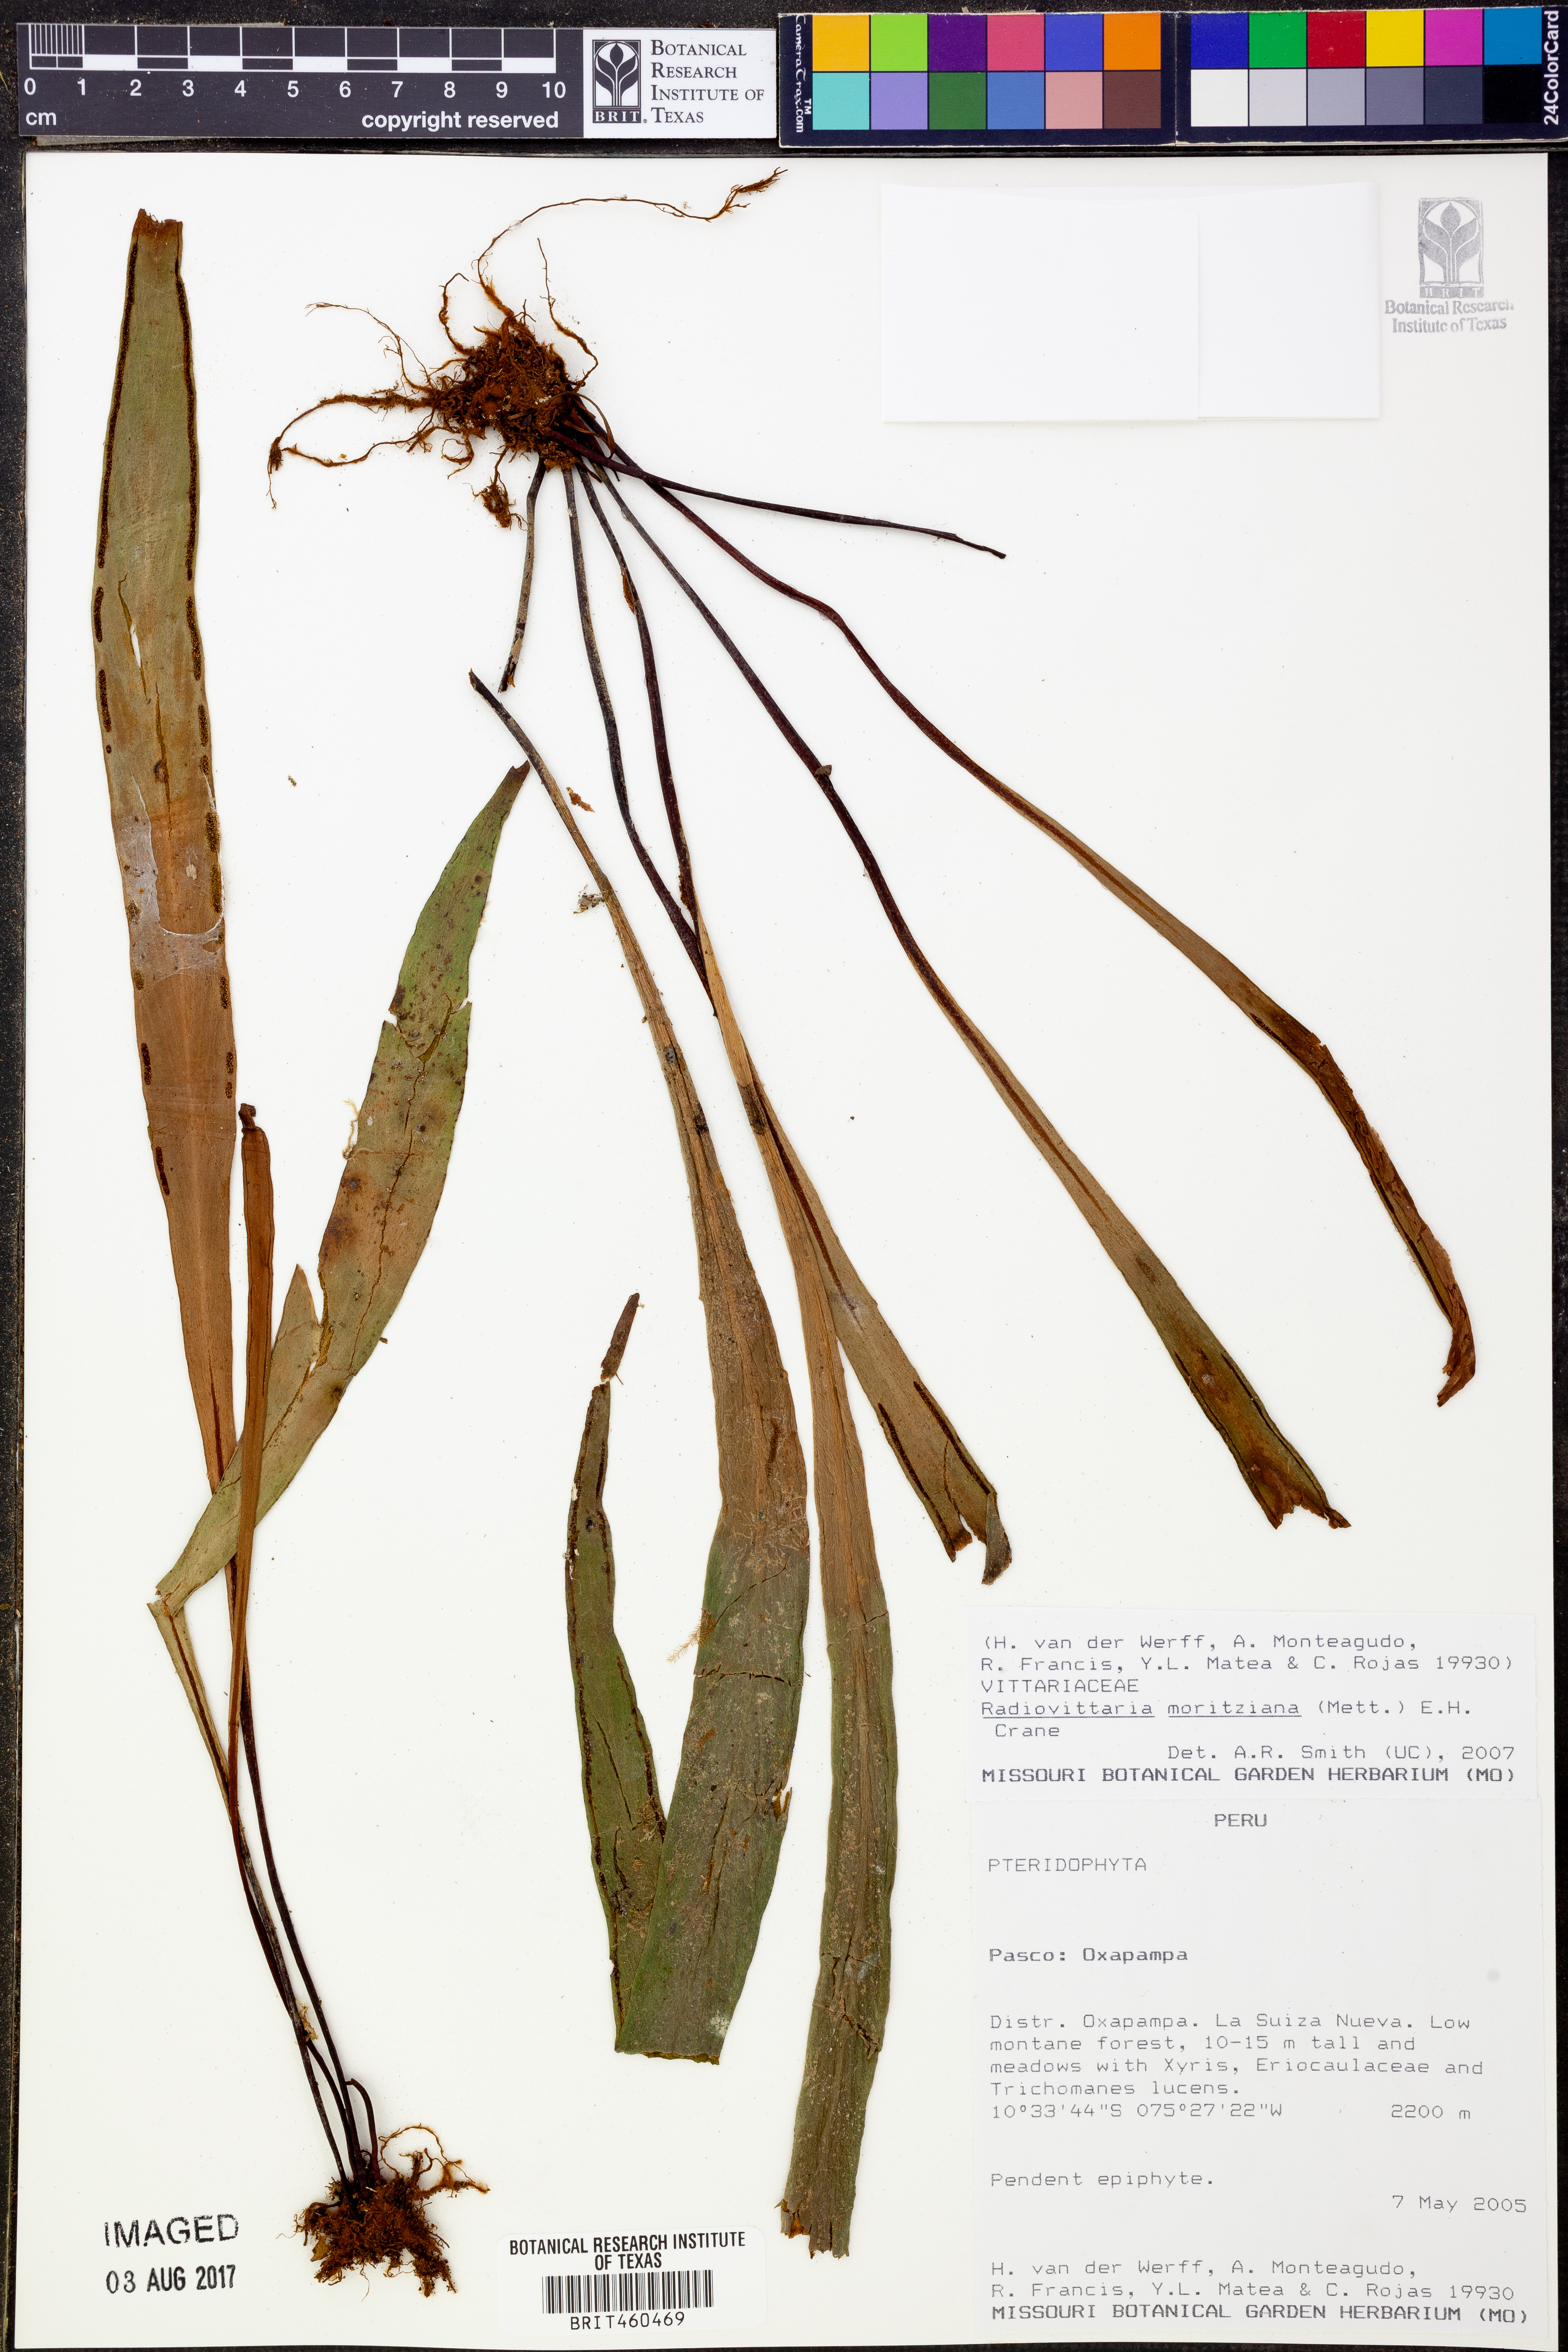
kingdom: Plantae
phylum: Tracheophyta
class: Polypodiopsida
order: Polypodiales
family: Pteridaceae
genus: Radiovittaria
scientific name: Radiovittaria moritziana
